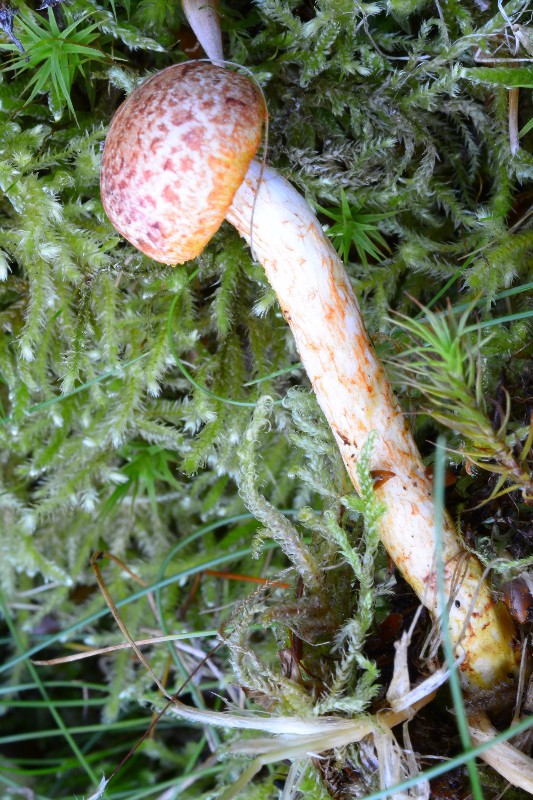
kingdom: Fungi
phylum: Basidiomycota
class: Agaricomycetes
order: Agaricales
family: Cortinariaceae
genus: Cortinarius
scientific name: Cortinarius bolaris
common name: cinnoberskællet slørhat
